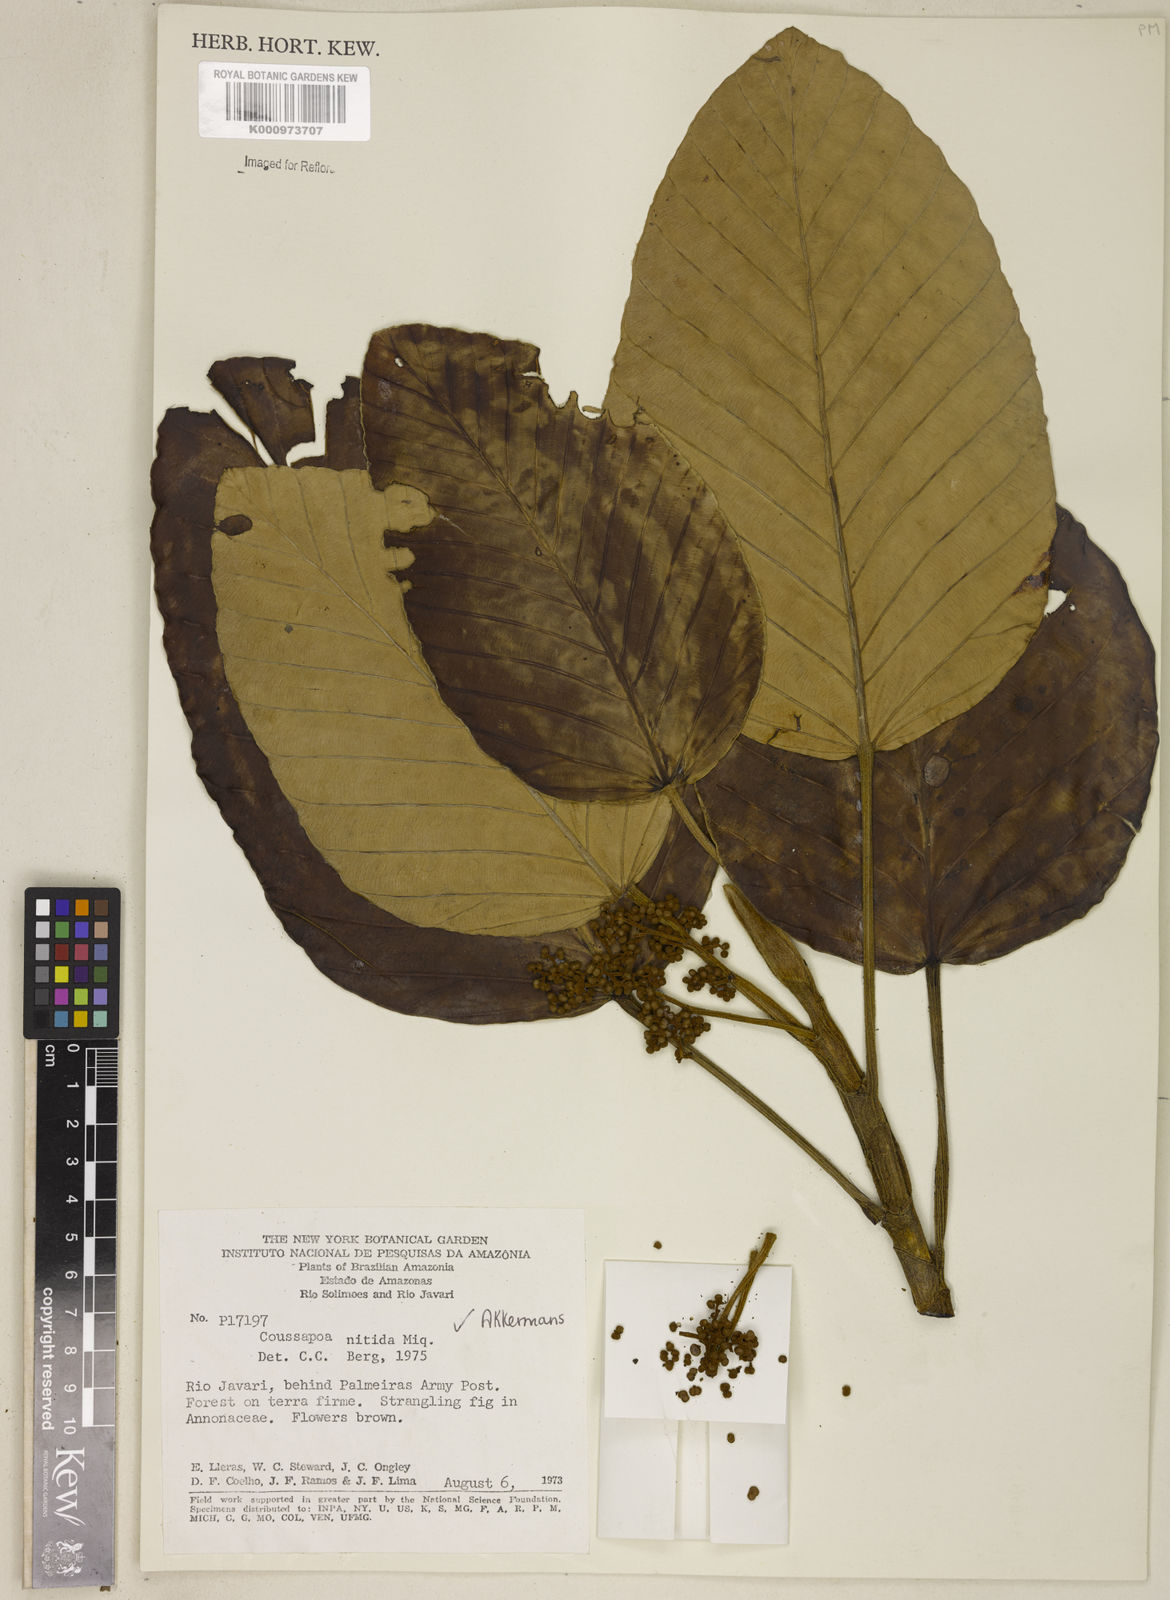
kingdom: Plantae
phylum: Tracheophyta
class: Magnoliopsida
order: Rosales
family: Urticaceae
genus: Coussapoa
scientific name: Coussapoa nitida
